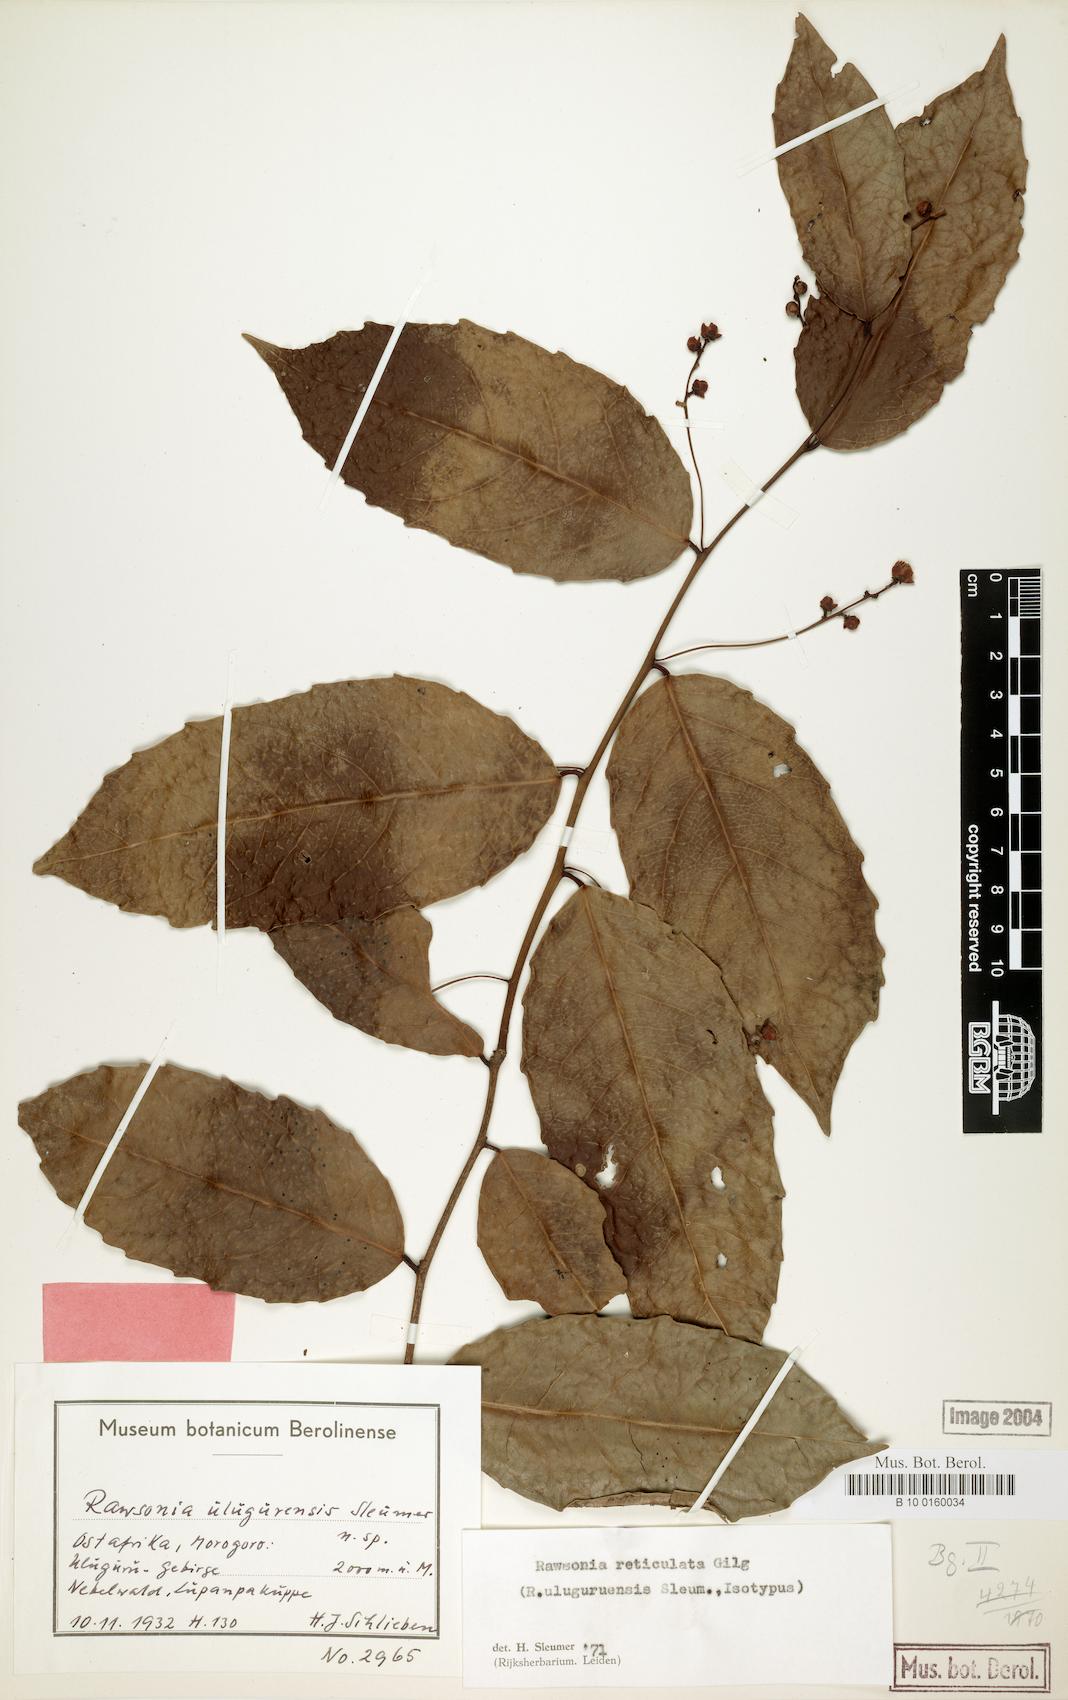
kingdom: Plantae
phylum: Tracheophyta
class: Magnoliopsida
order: Malpighiales
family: Achariaceae
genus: Rawsonia
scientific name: Rawsonia lucida
